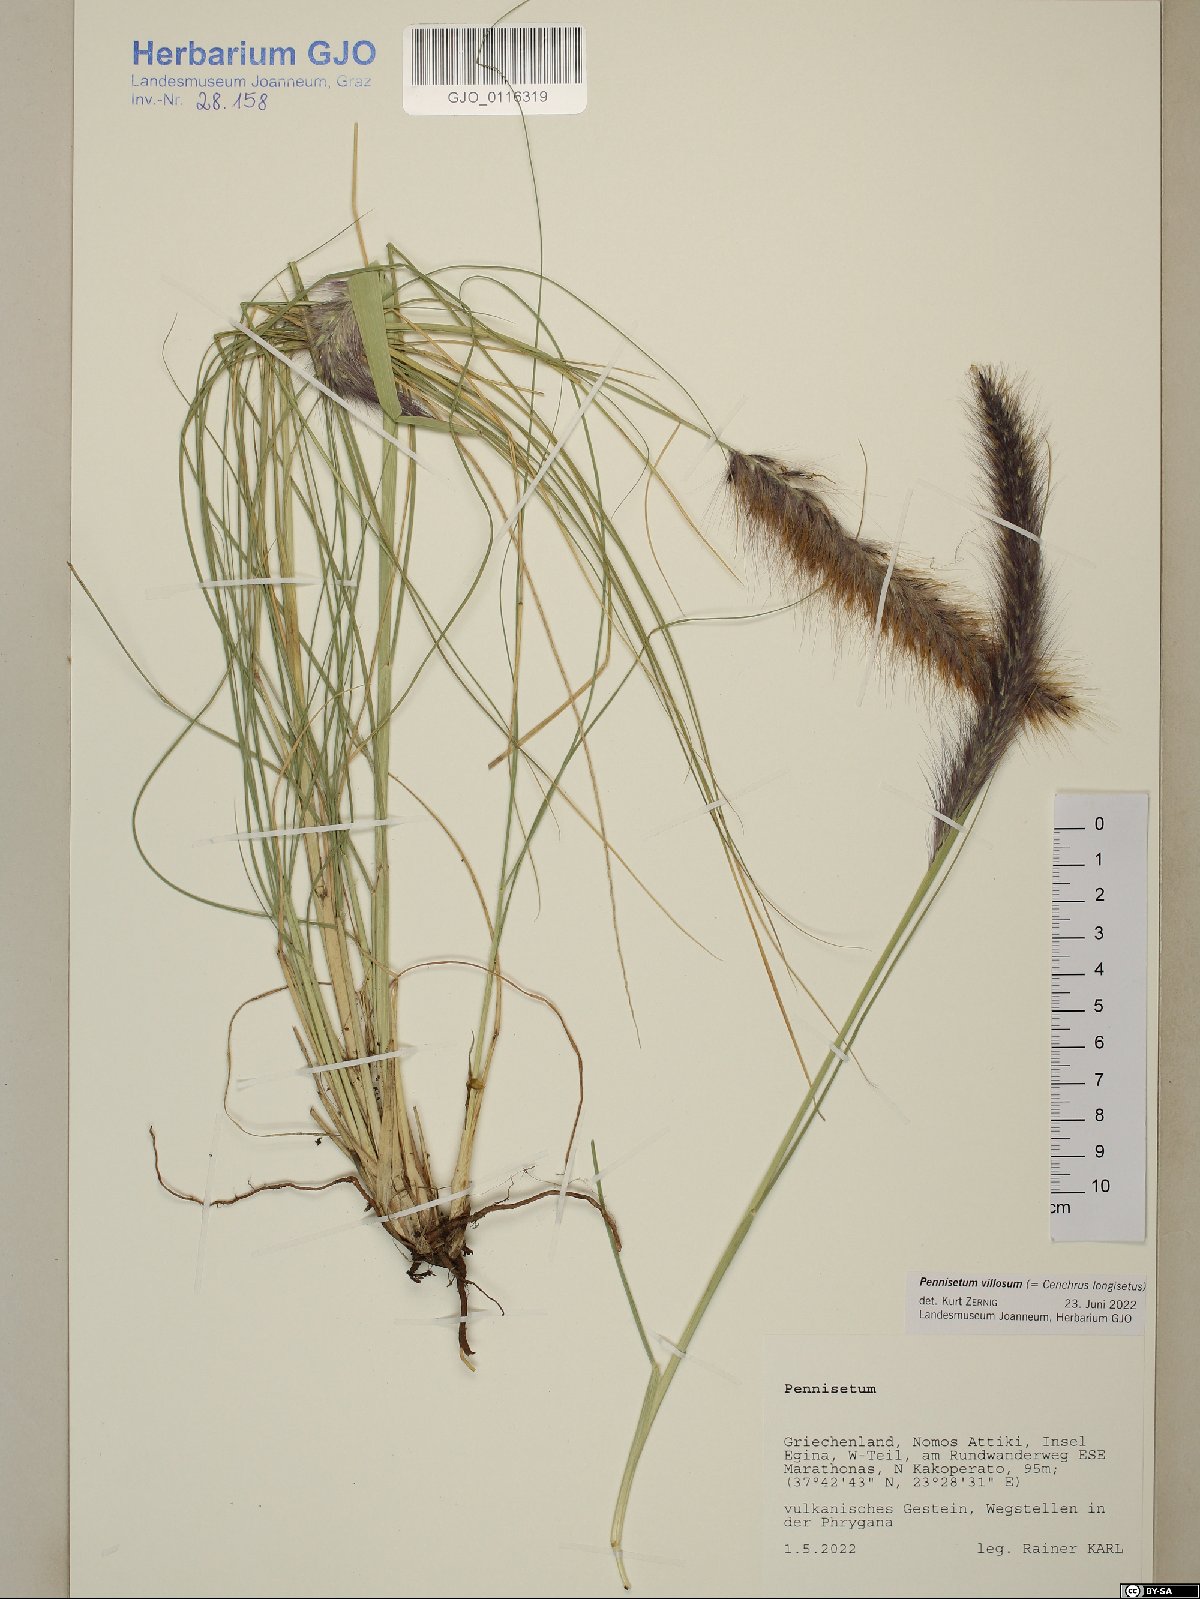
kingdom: Plantae
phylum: Tracheophyta
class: Liliopsida
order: Poales
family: Poaceae
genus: Cenchrus
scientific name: Cenchrus longisetus
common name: Feathertop
